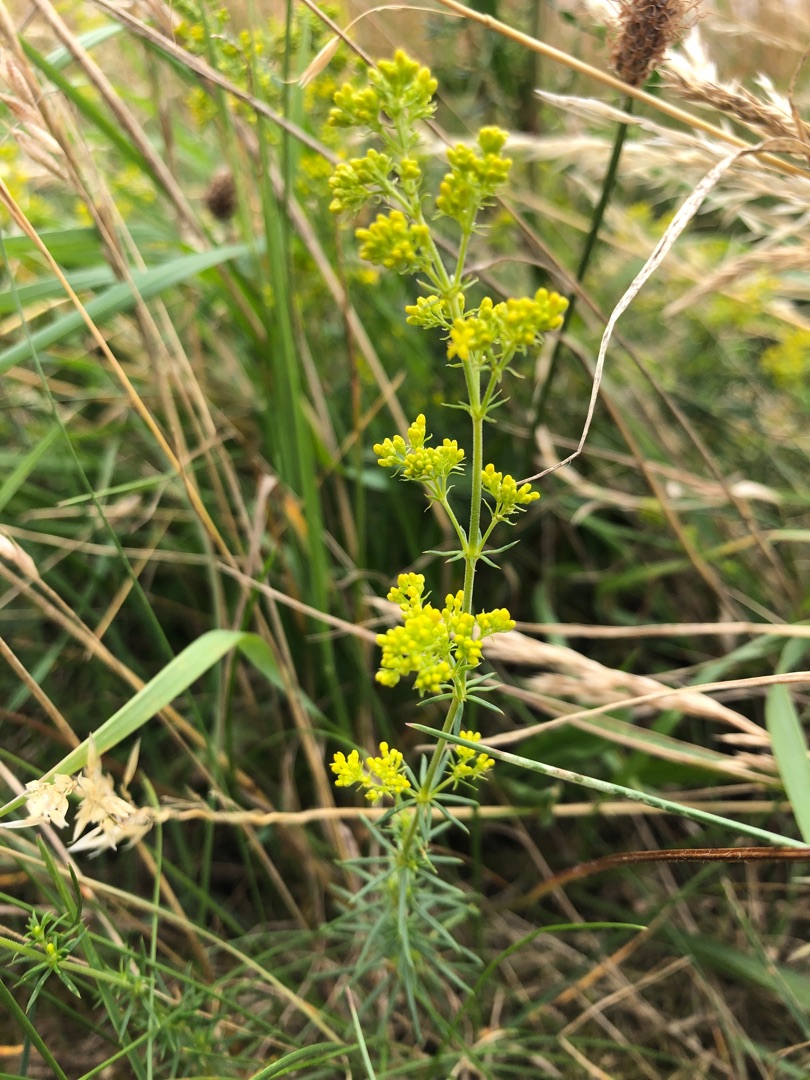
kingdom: Plantae
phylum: Tracheophyta
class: Magnoliopsida
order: Gentianales
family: Rubiaceae
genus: Galium
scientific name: Galium verum
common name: Gul snerre
